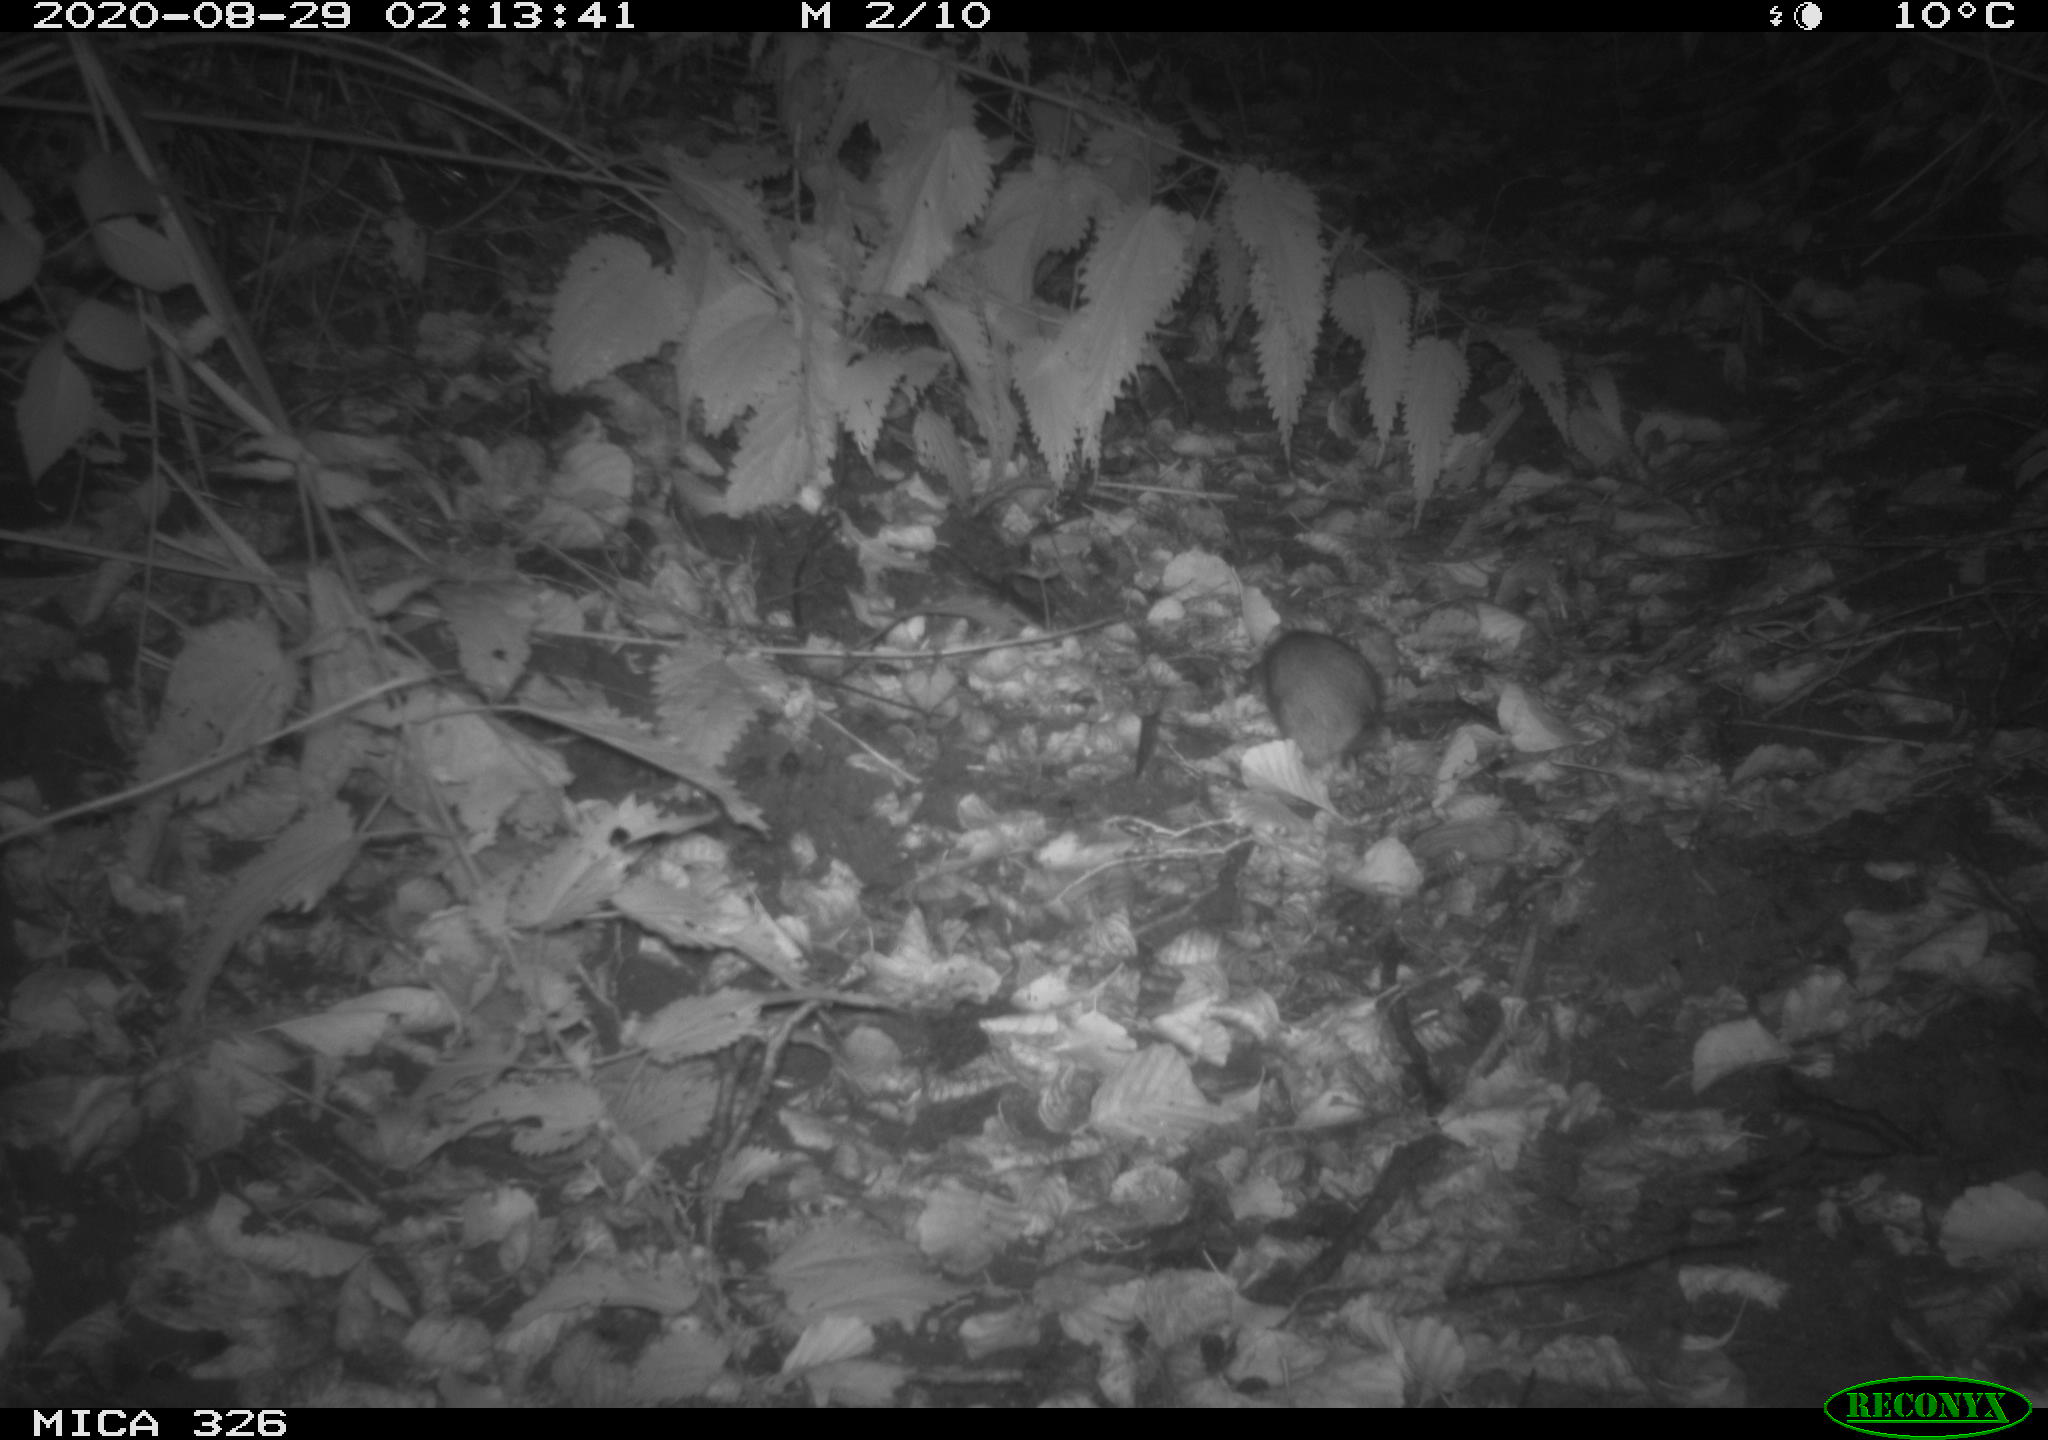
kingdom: Animalia
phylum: Chordata
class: Mammalia
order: Rodentia
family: Muridae
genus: Rattus
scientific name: Rattus norvegicus
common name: Brown rat
